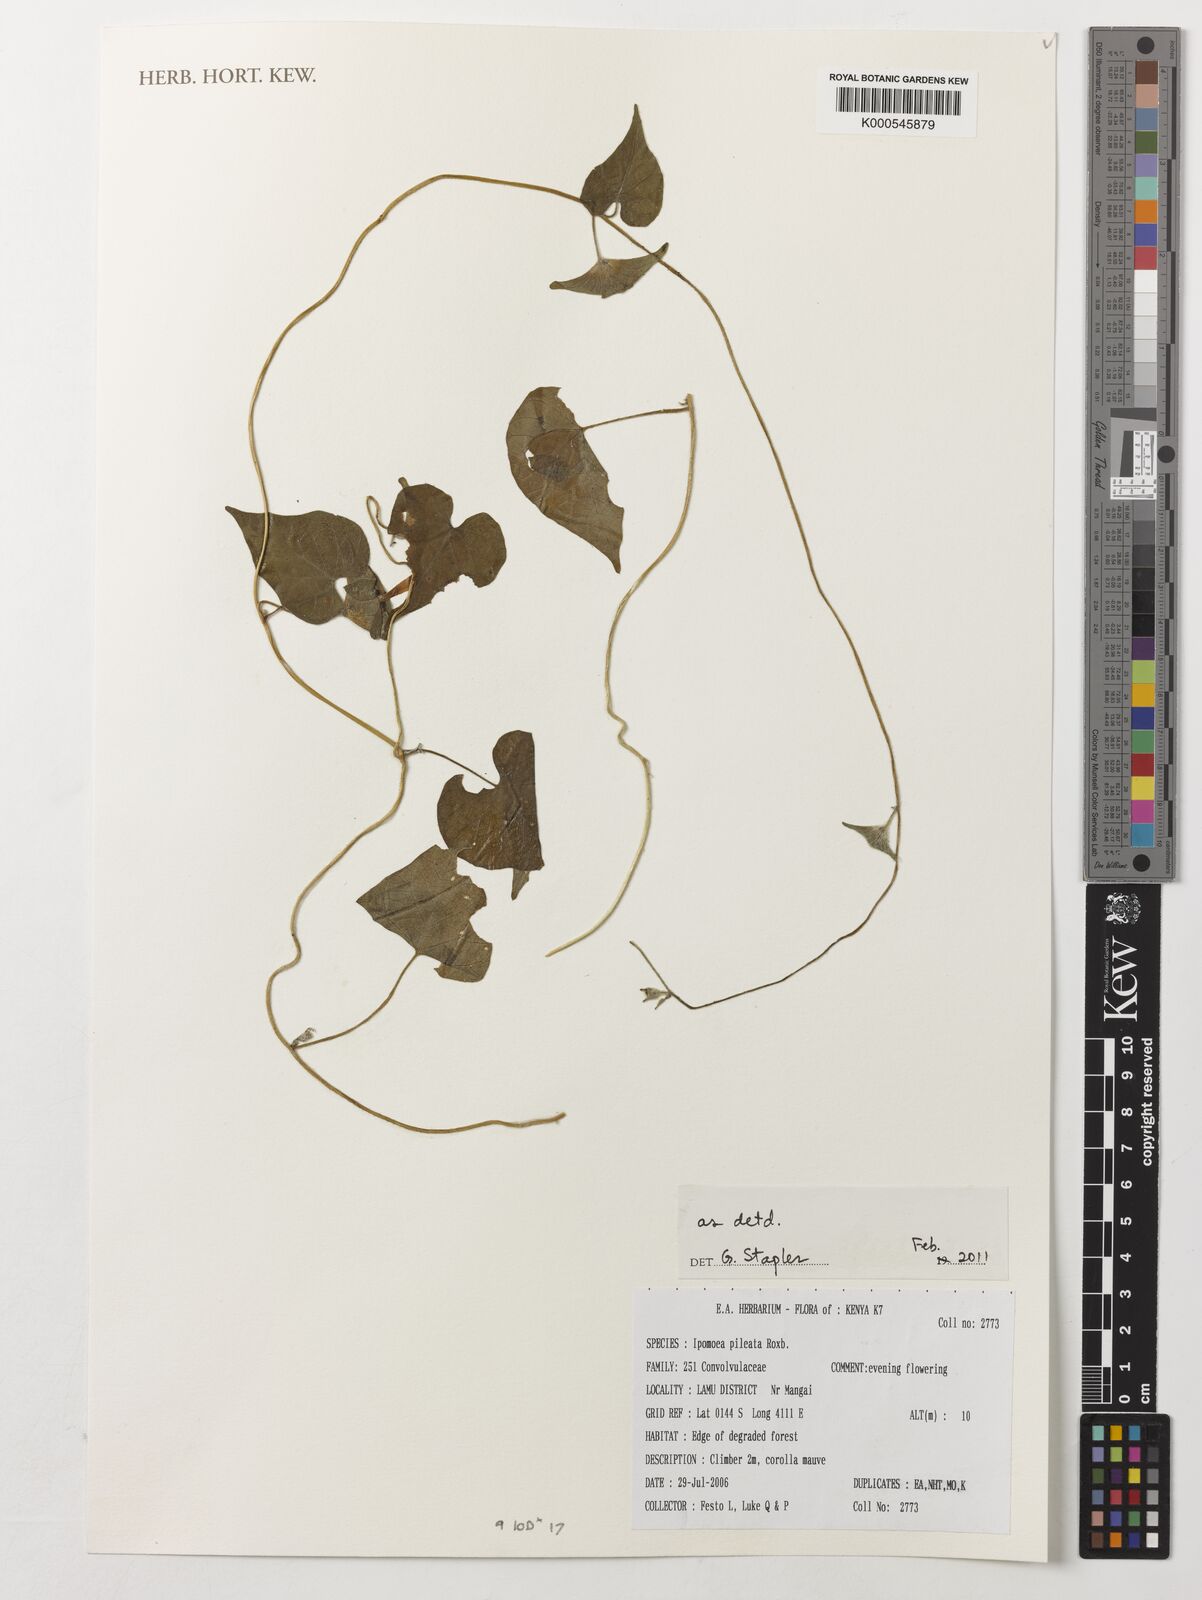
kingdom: Plantae
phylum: Tracheophyta
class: Magnoliopsida
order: Solanales
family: Convolvulaceae
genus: Ipomoea
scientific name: Ipomoea pileata
